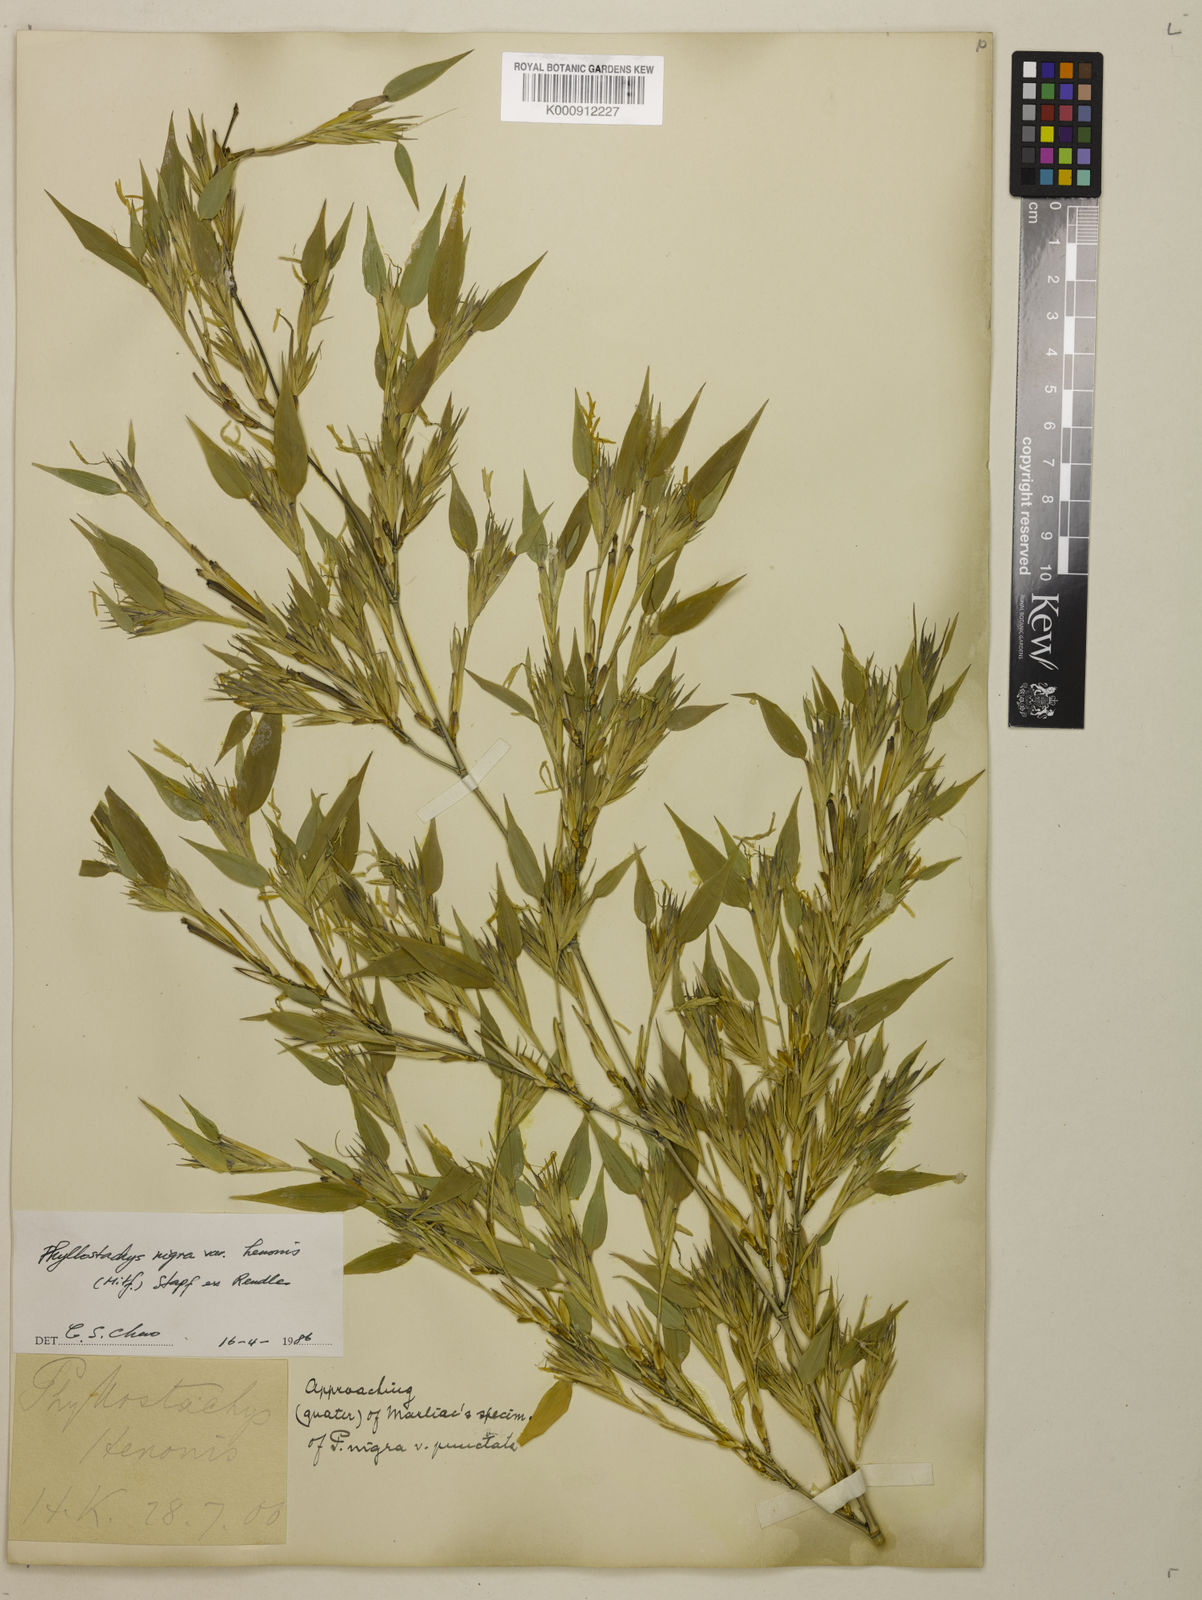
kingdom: Plantae
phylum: Tracheophyta
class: Liliopsida
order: Poales
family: Poaceae
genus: Phyllostachys
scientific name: Phyllostachys nigra
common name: Black bamboo
